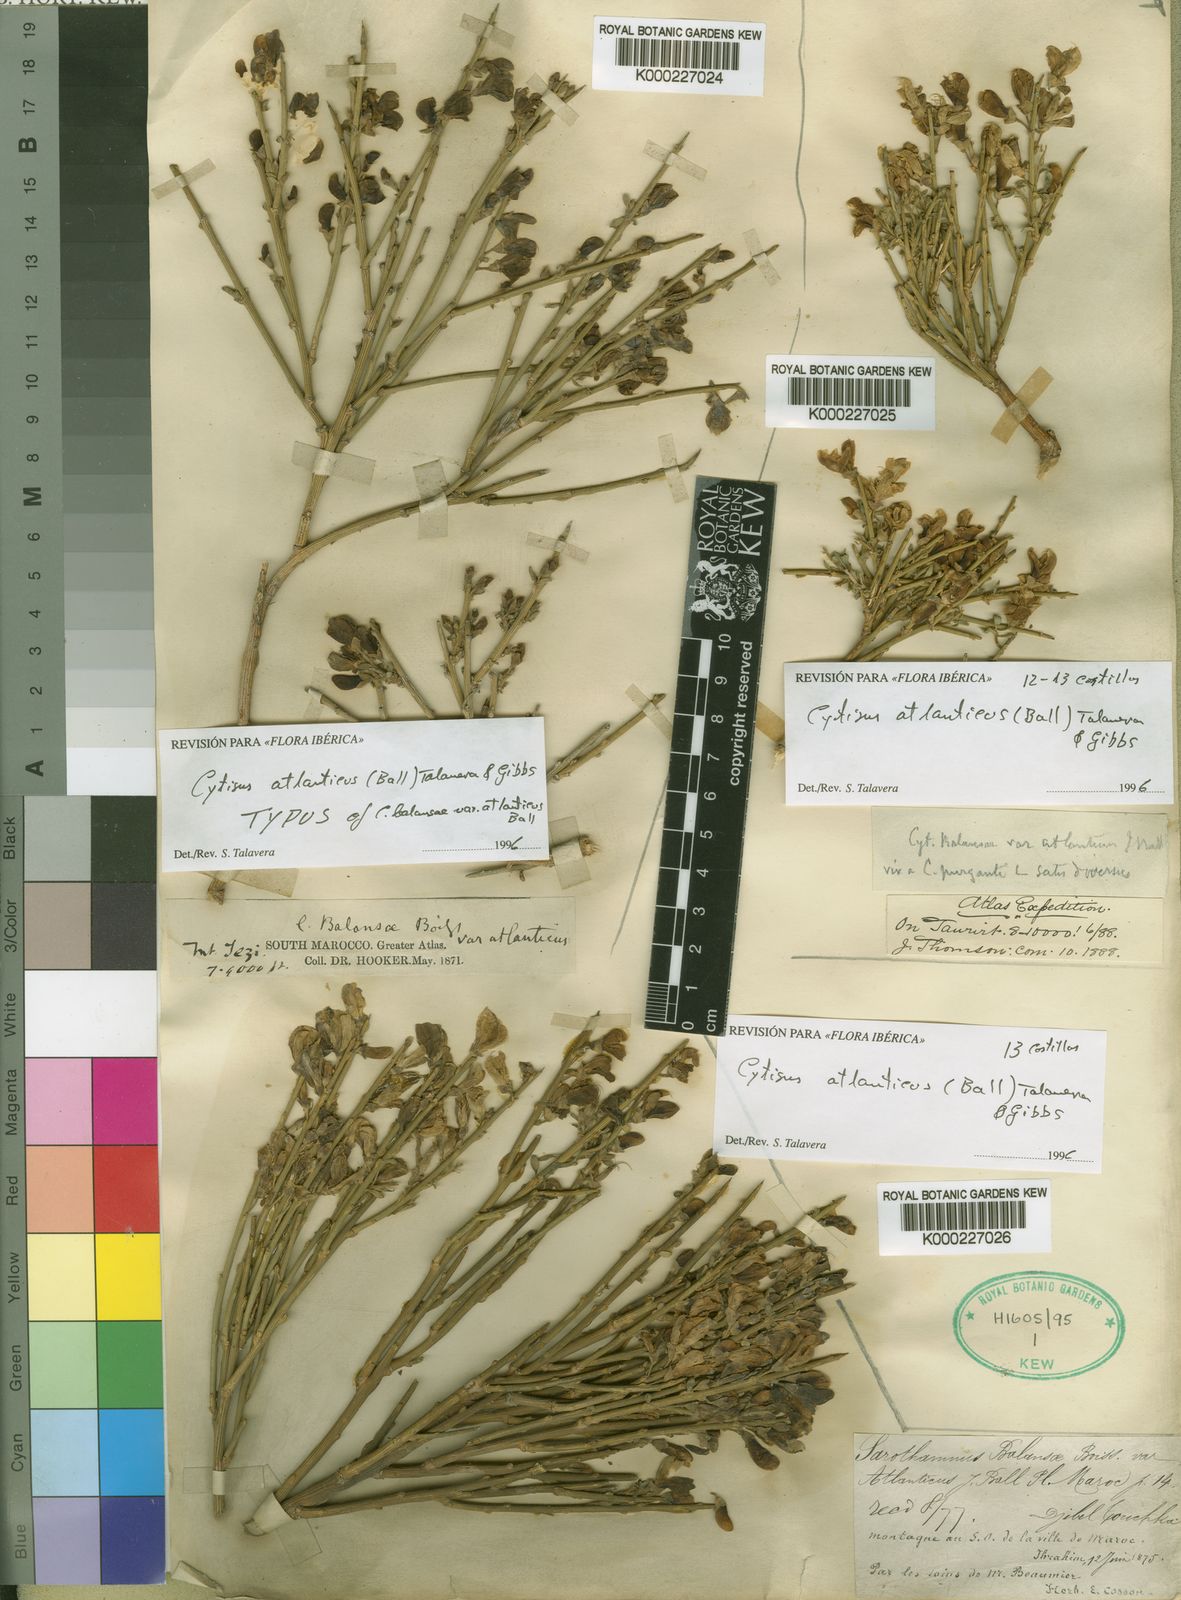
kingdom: Plantae
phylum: Tracheophyta
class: Magnoliopsida
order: Fabales
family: Fabaceae
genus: Cytisus
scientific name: Cytisus
